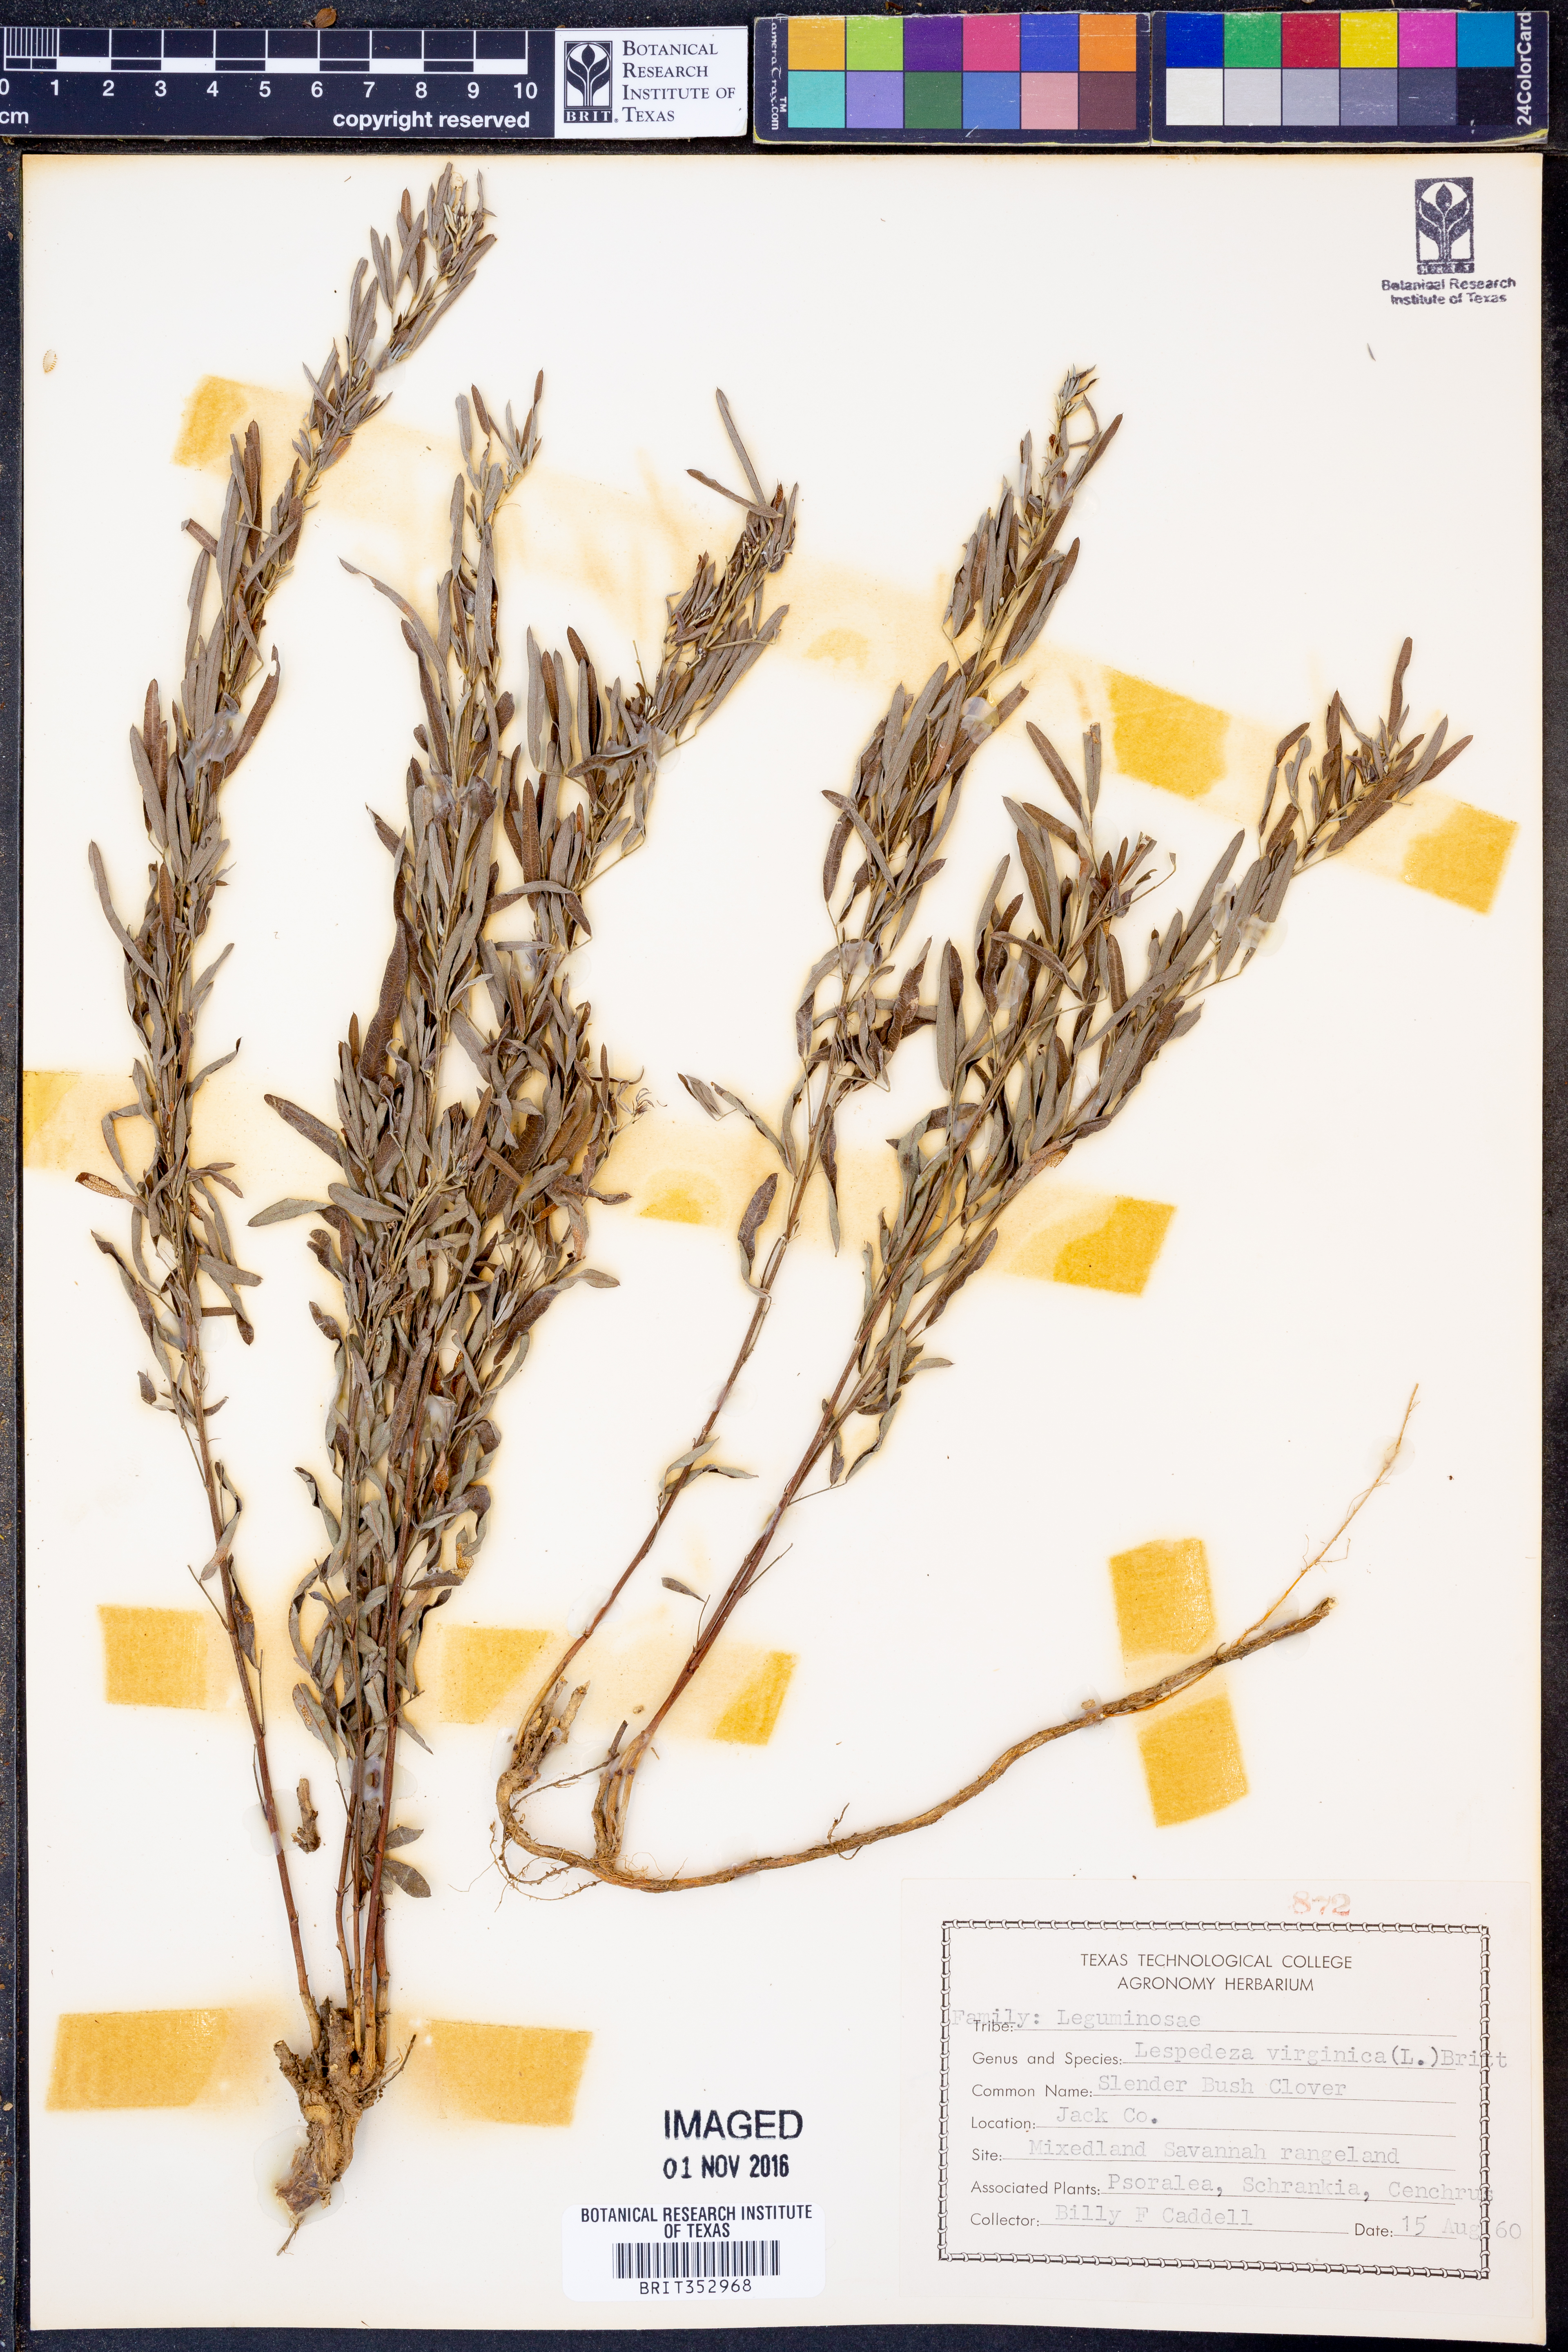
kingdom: Plantae
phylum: Tracheophyta
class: Magnoliopsida
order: Fabales
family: Fabaceae
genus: Lespedeza
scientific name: Lespedeza virginica
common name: Slender bush-clover
